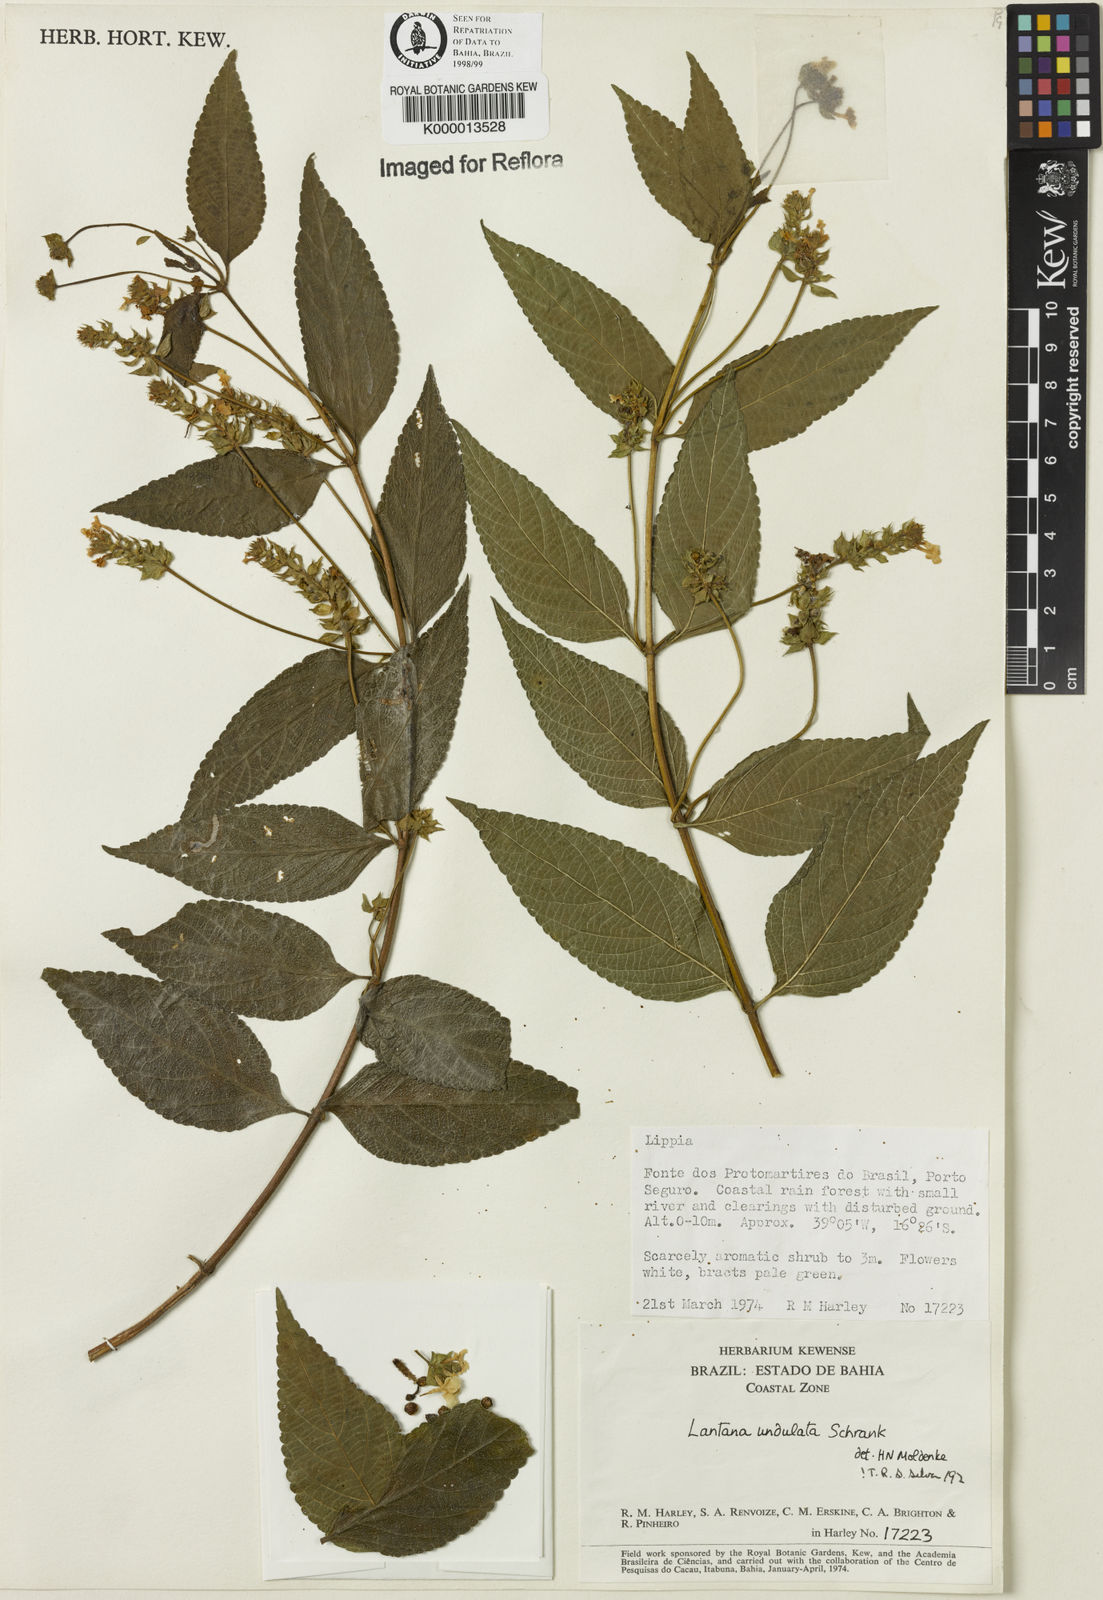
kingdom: Plantae
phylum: Tracheophyta
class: Magnoliopsida
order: Lamiales
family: Verbenaceae
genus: Lantana
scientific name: Lantana undulata
